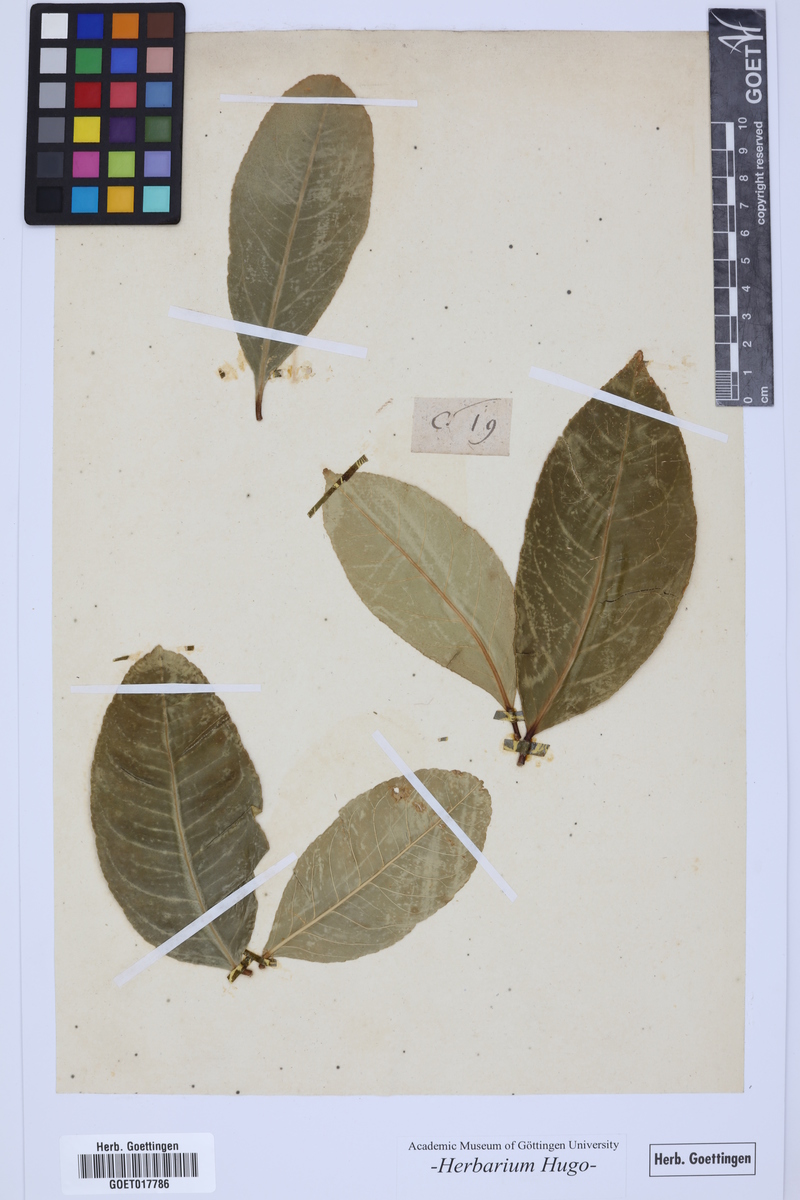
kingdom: Plantae
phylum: Tracheophyta
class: Magnoliopsida
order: Sapindales
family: Rutaceae
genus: Citrus
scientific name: Citrus
